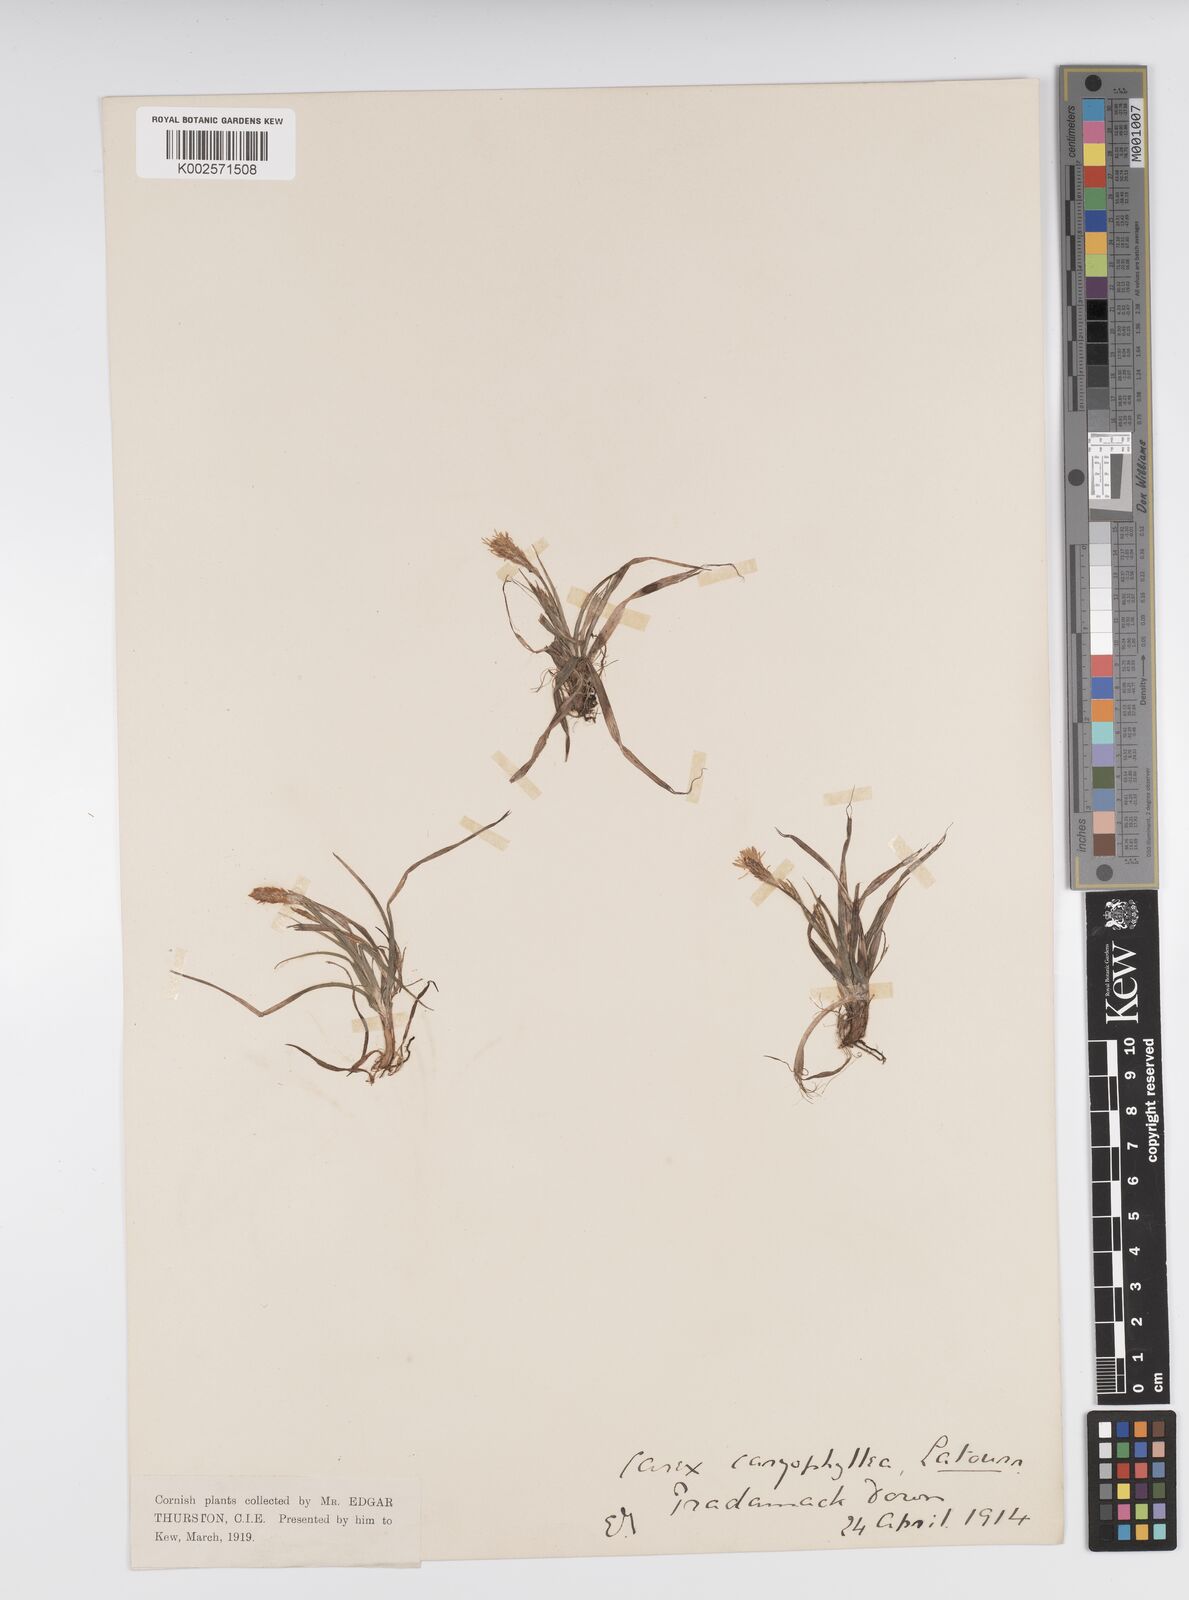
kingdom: Plantae
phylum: Tracheophyta
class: Liliopsida
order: Poales
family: Cyperaceae
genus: Carex
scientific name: Carex caryophyllea
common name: Spring sedge
